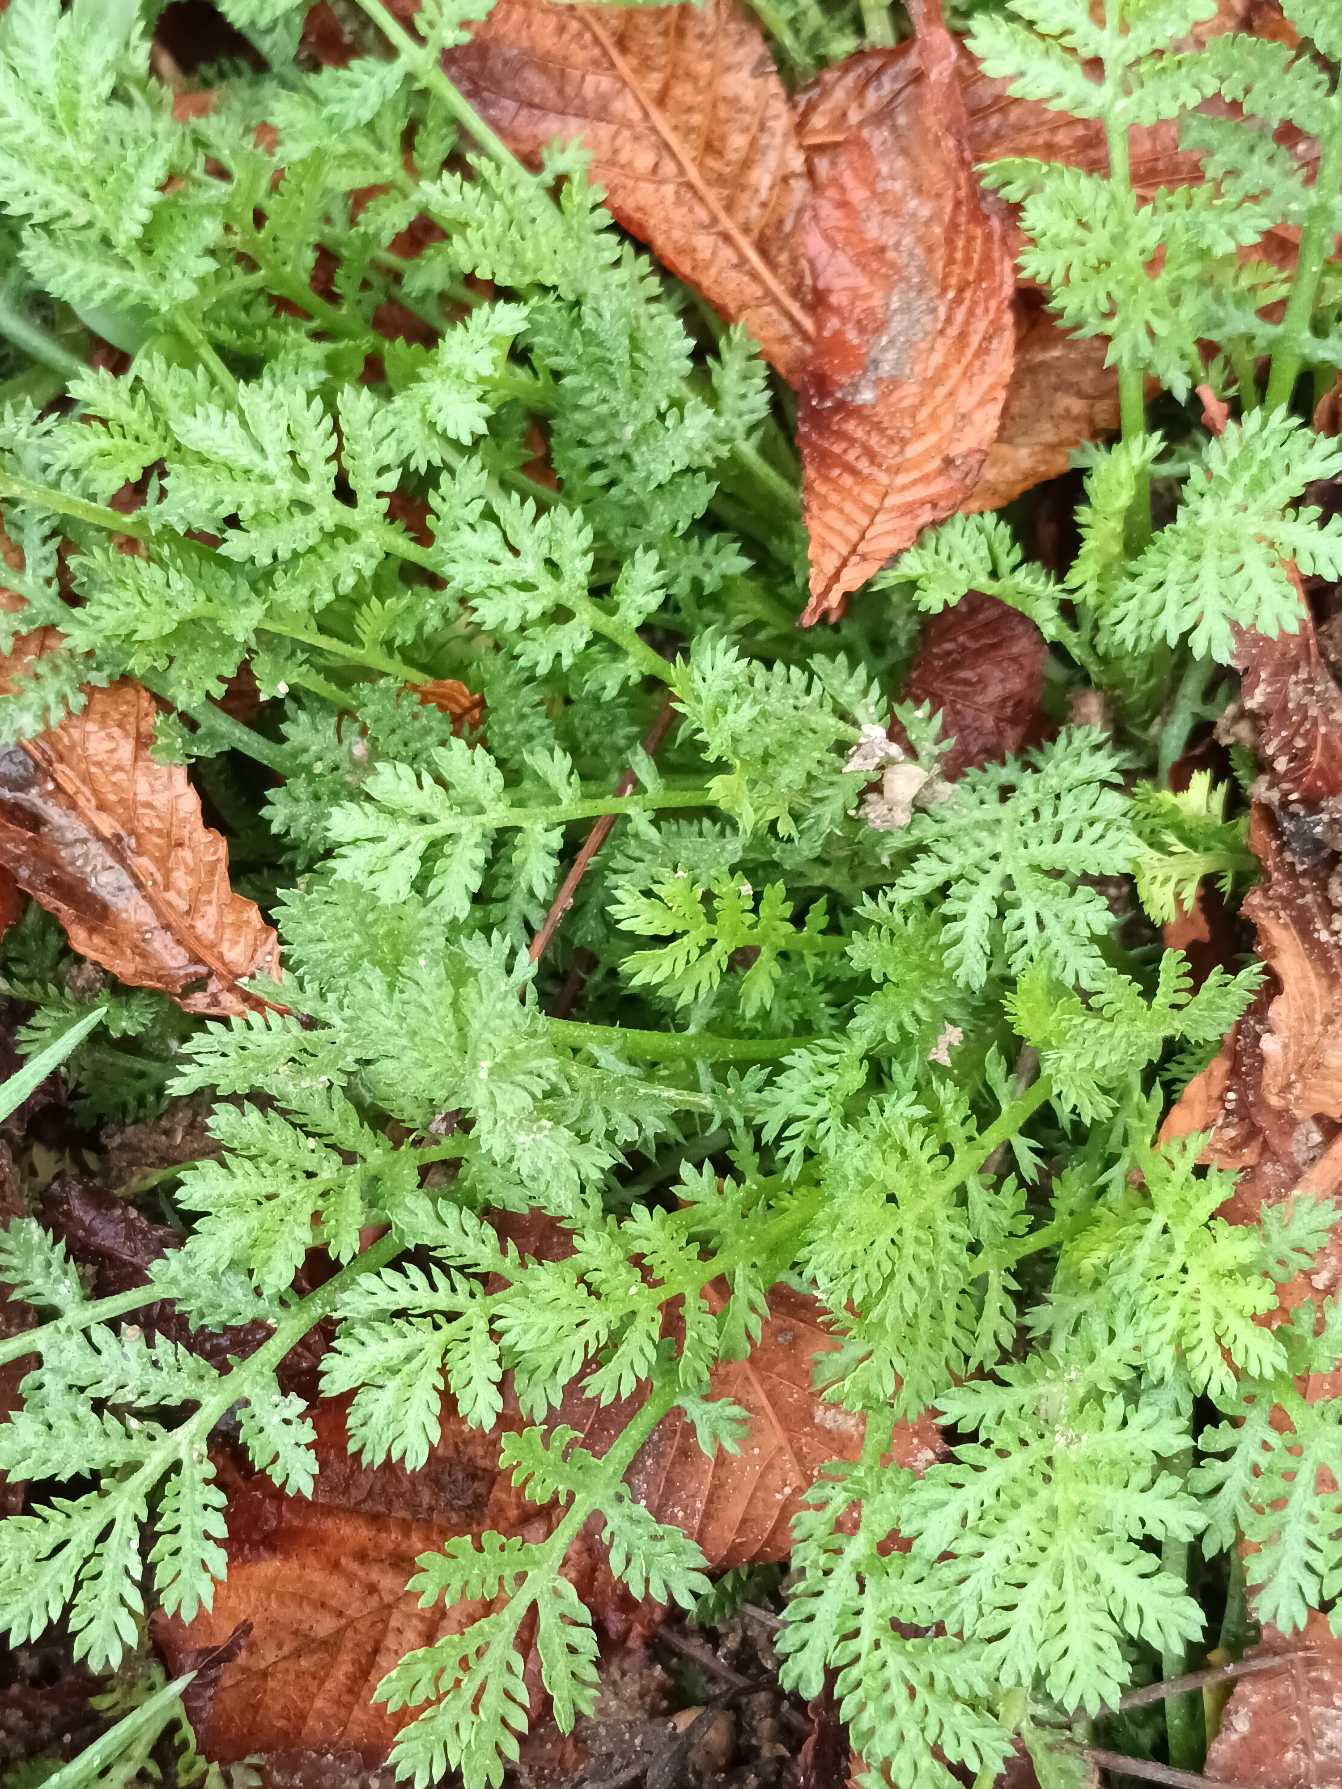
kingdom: Plantae
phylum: Tracheophyta
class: Magnoliopsida
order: Asterales
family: Asteraceae
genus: Tanacetum
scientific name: Tanacetum vulgare
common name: Rejnfan
